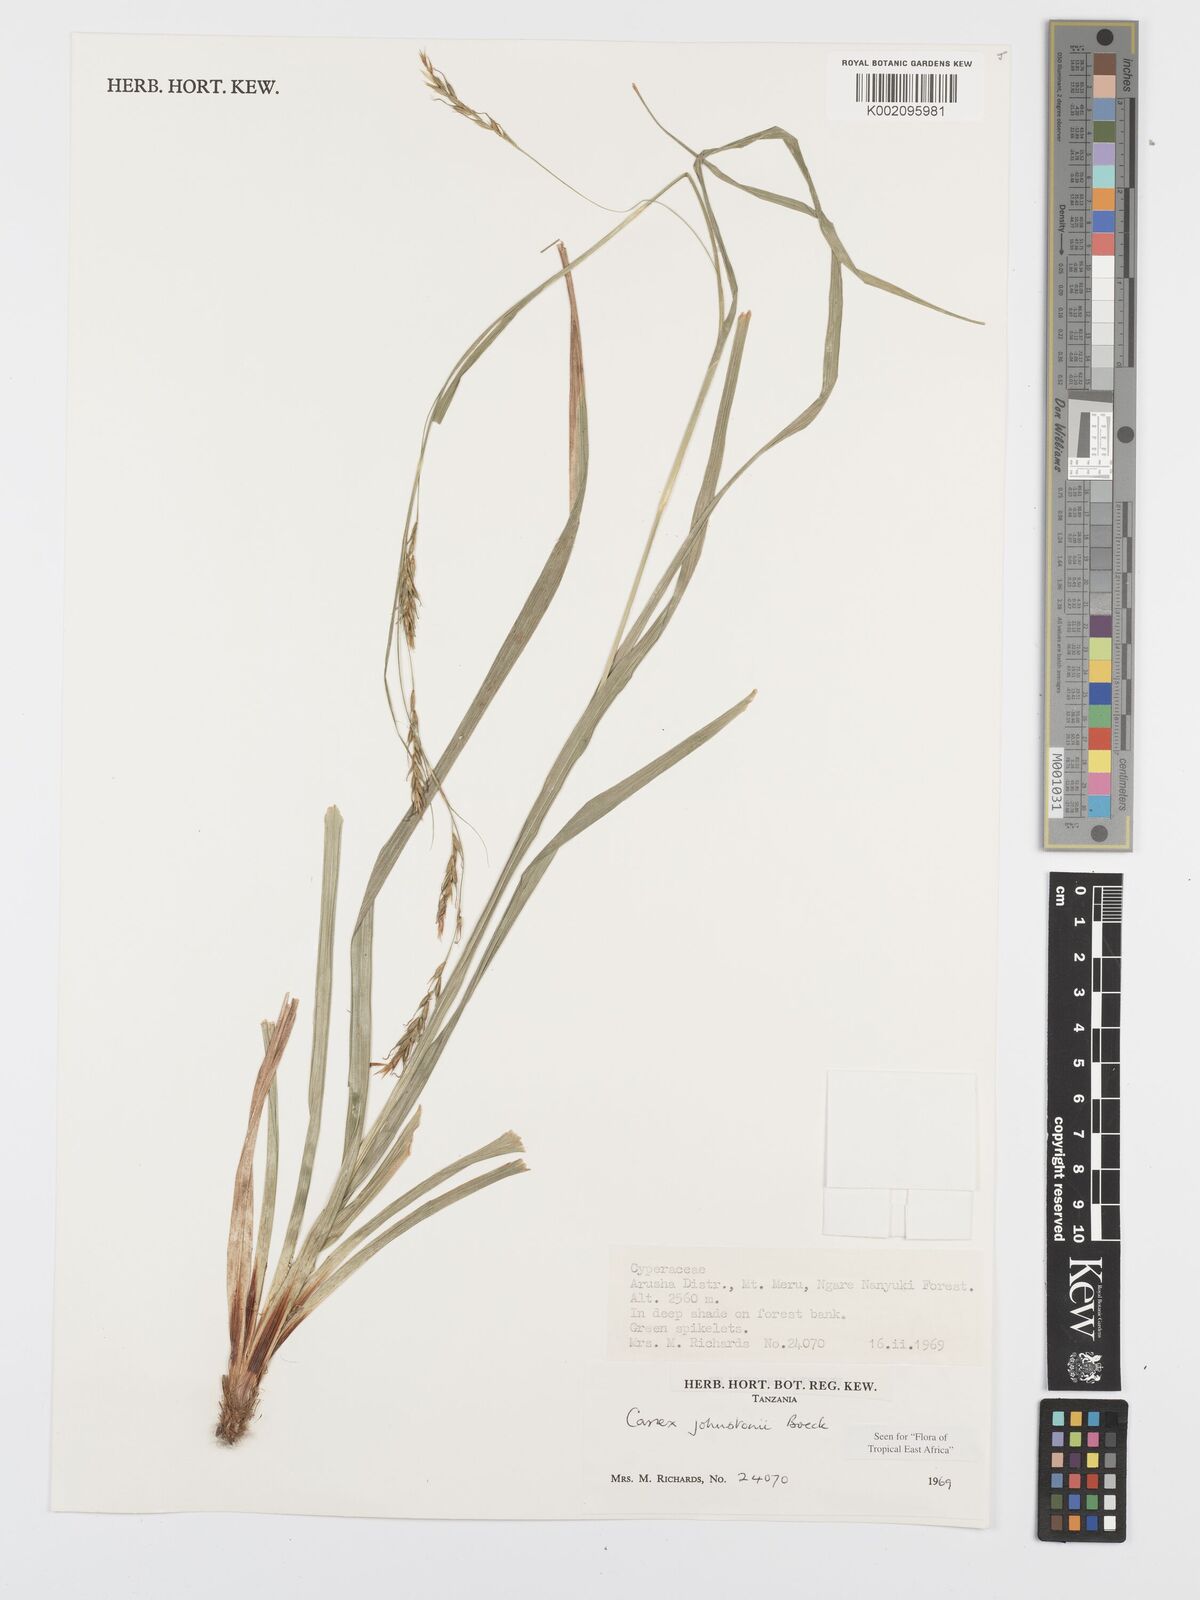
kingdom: Plantae
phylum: Tracheophyta
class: Liliopsida
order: Poales
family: Cyperaceae
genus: Carex
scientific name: Carex johnstonii
